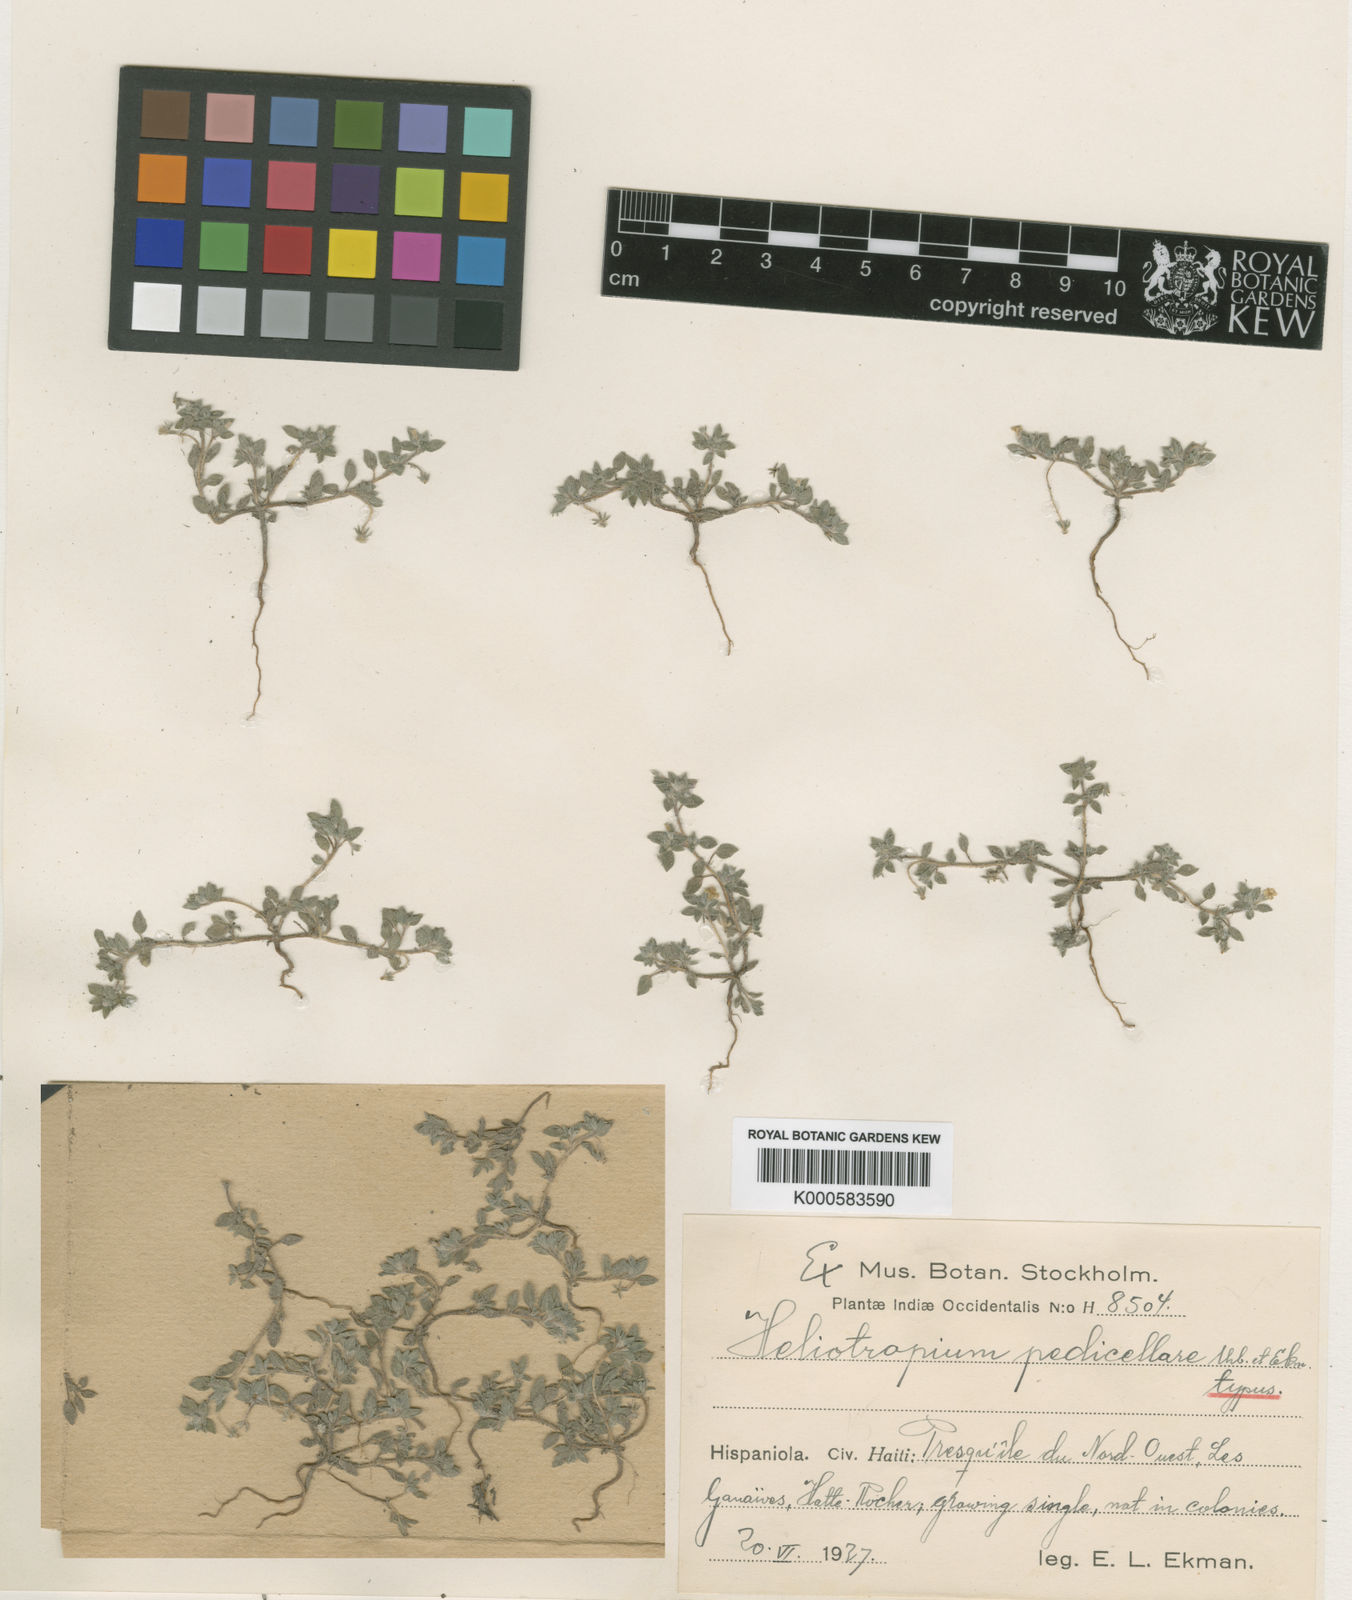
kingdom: Plantae
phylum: Tracheophyta
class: Magnoliopsida
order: Boraginales
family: Heliotropiaceae
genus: Euploca
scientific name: Euploca microphylla
